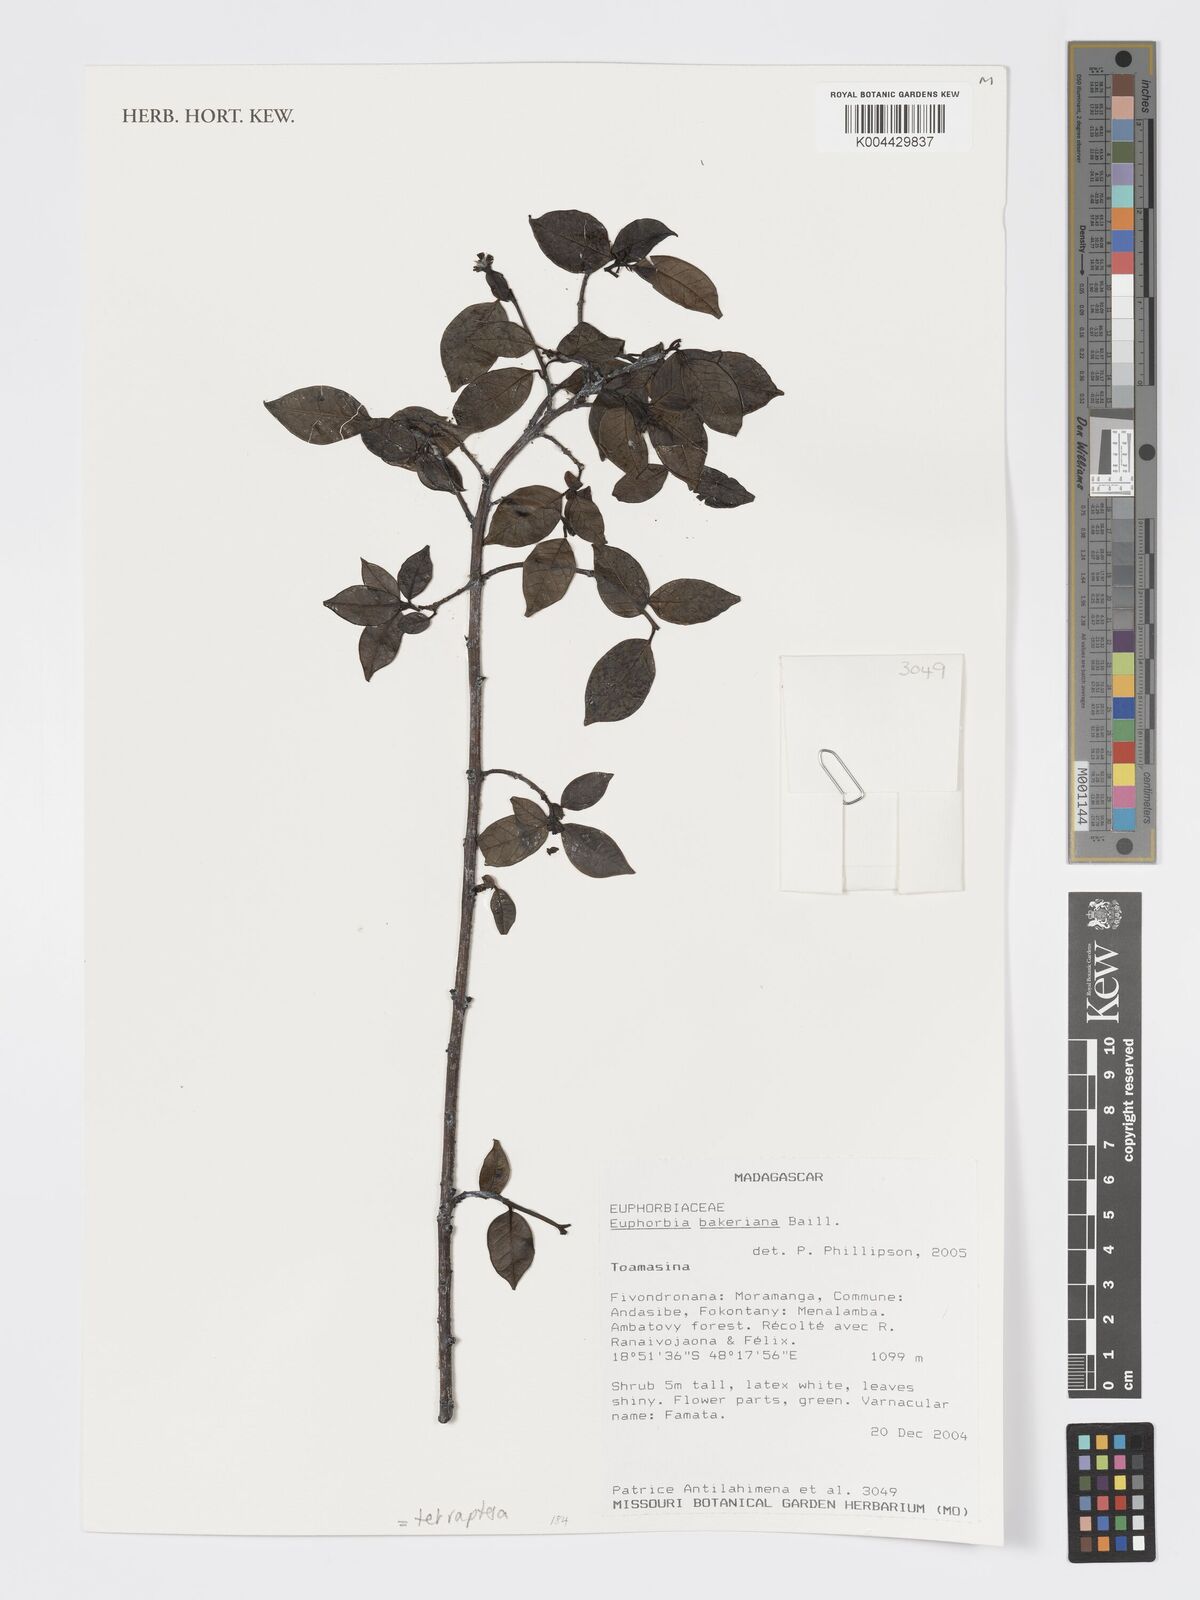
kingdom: Plantae
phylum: Tracheophyta
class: Magnoliopsida
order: Malpighiales
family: Euphorbiaceae
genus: Euphorbia
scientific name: Euphorbia tetraptera
